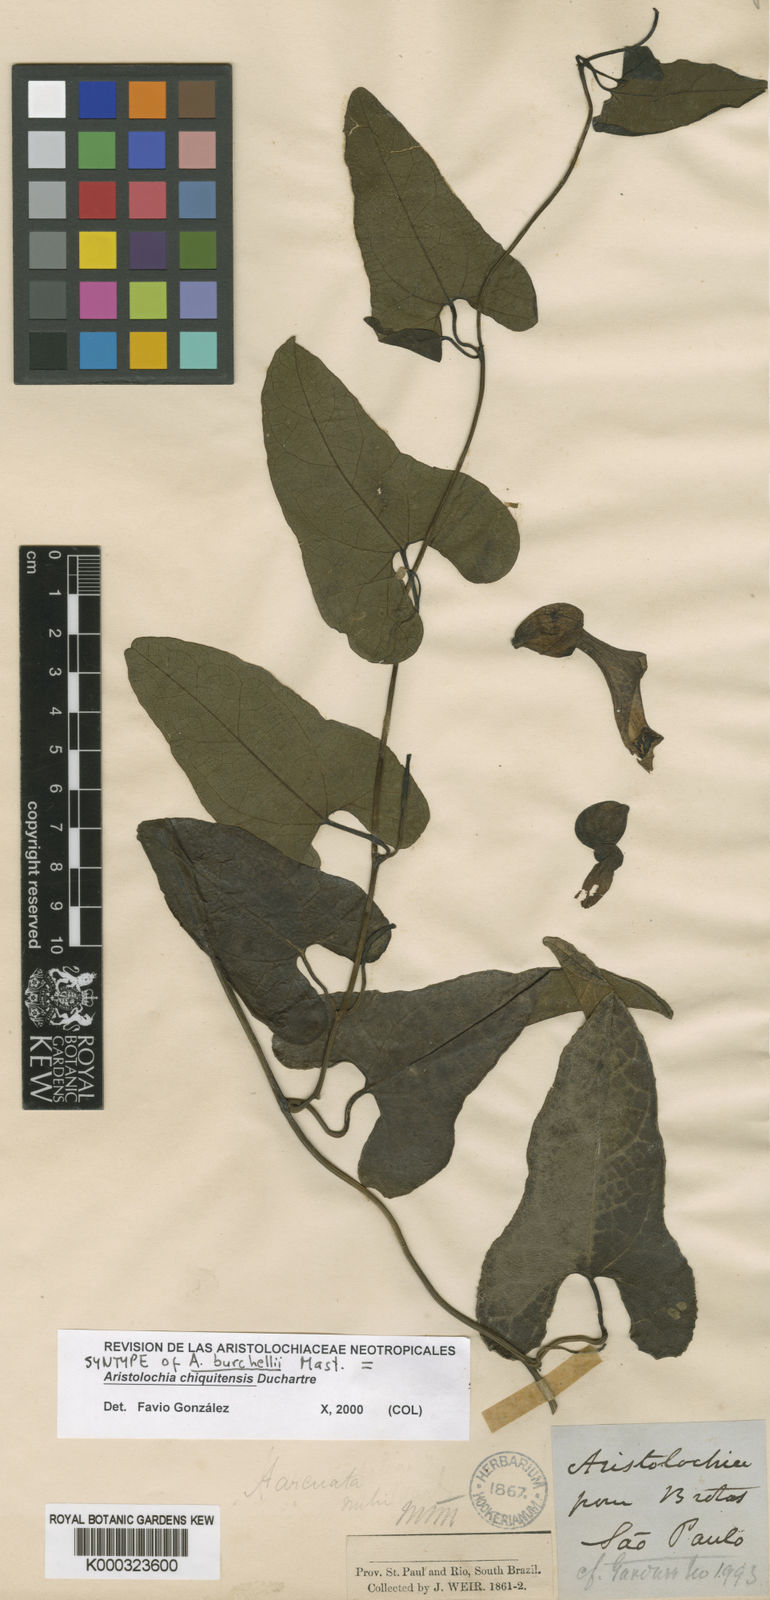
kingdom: Plantae
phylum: Tracheophyta
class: Magnoliopsida
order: Piperales
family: Aristolochiaceae
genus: Aristolochia
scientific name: Aristolochia chiquitensis
